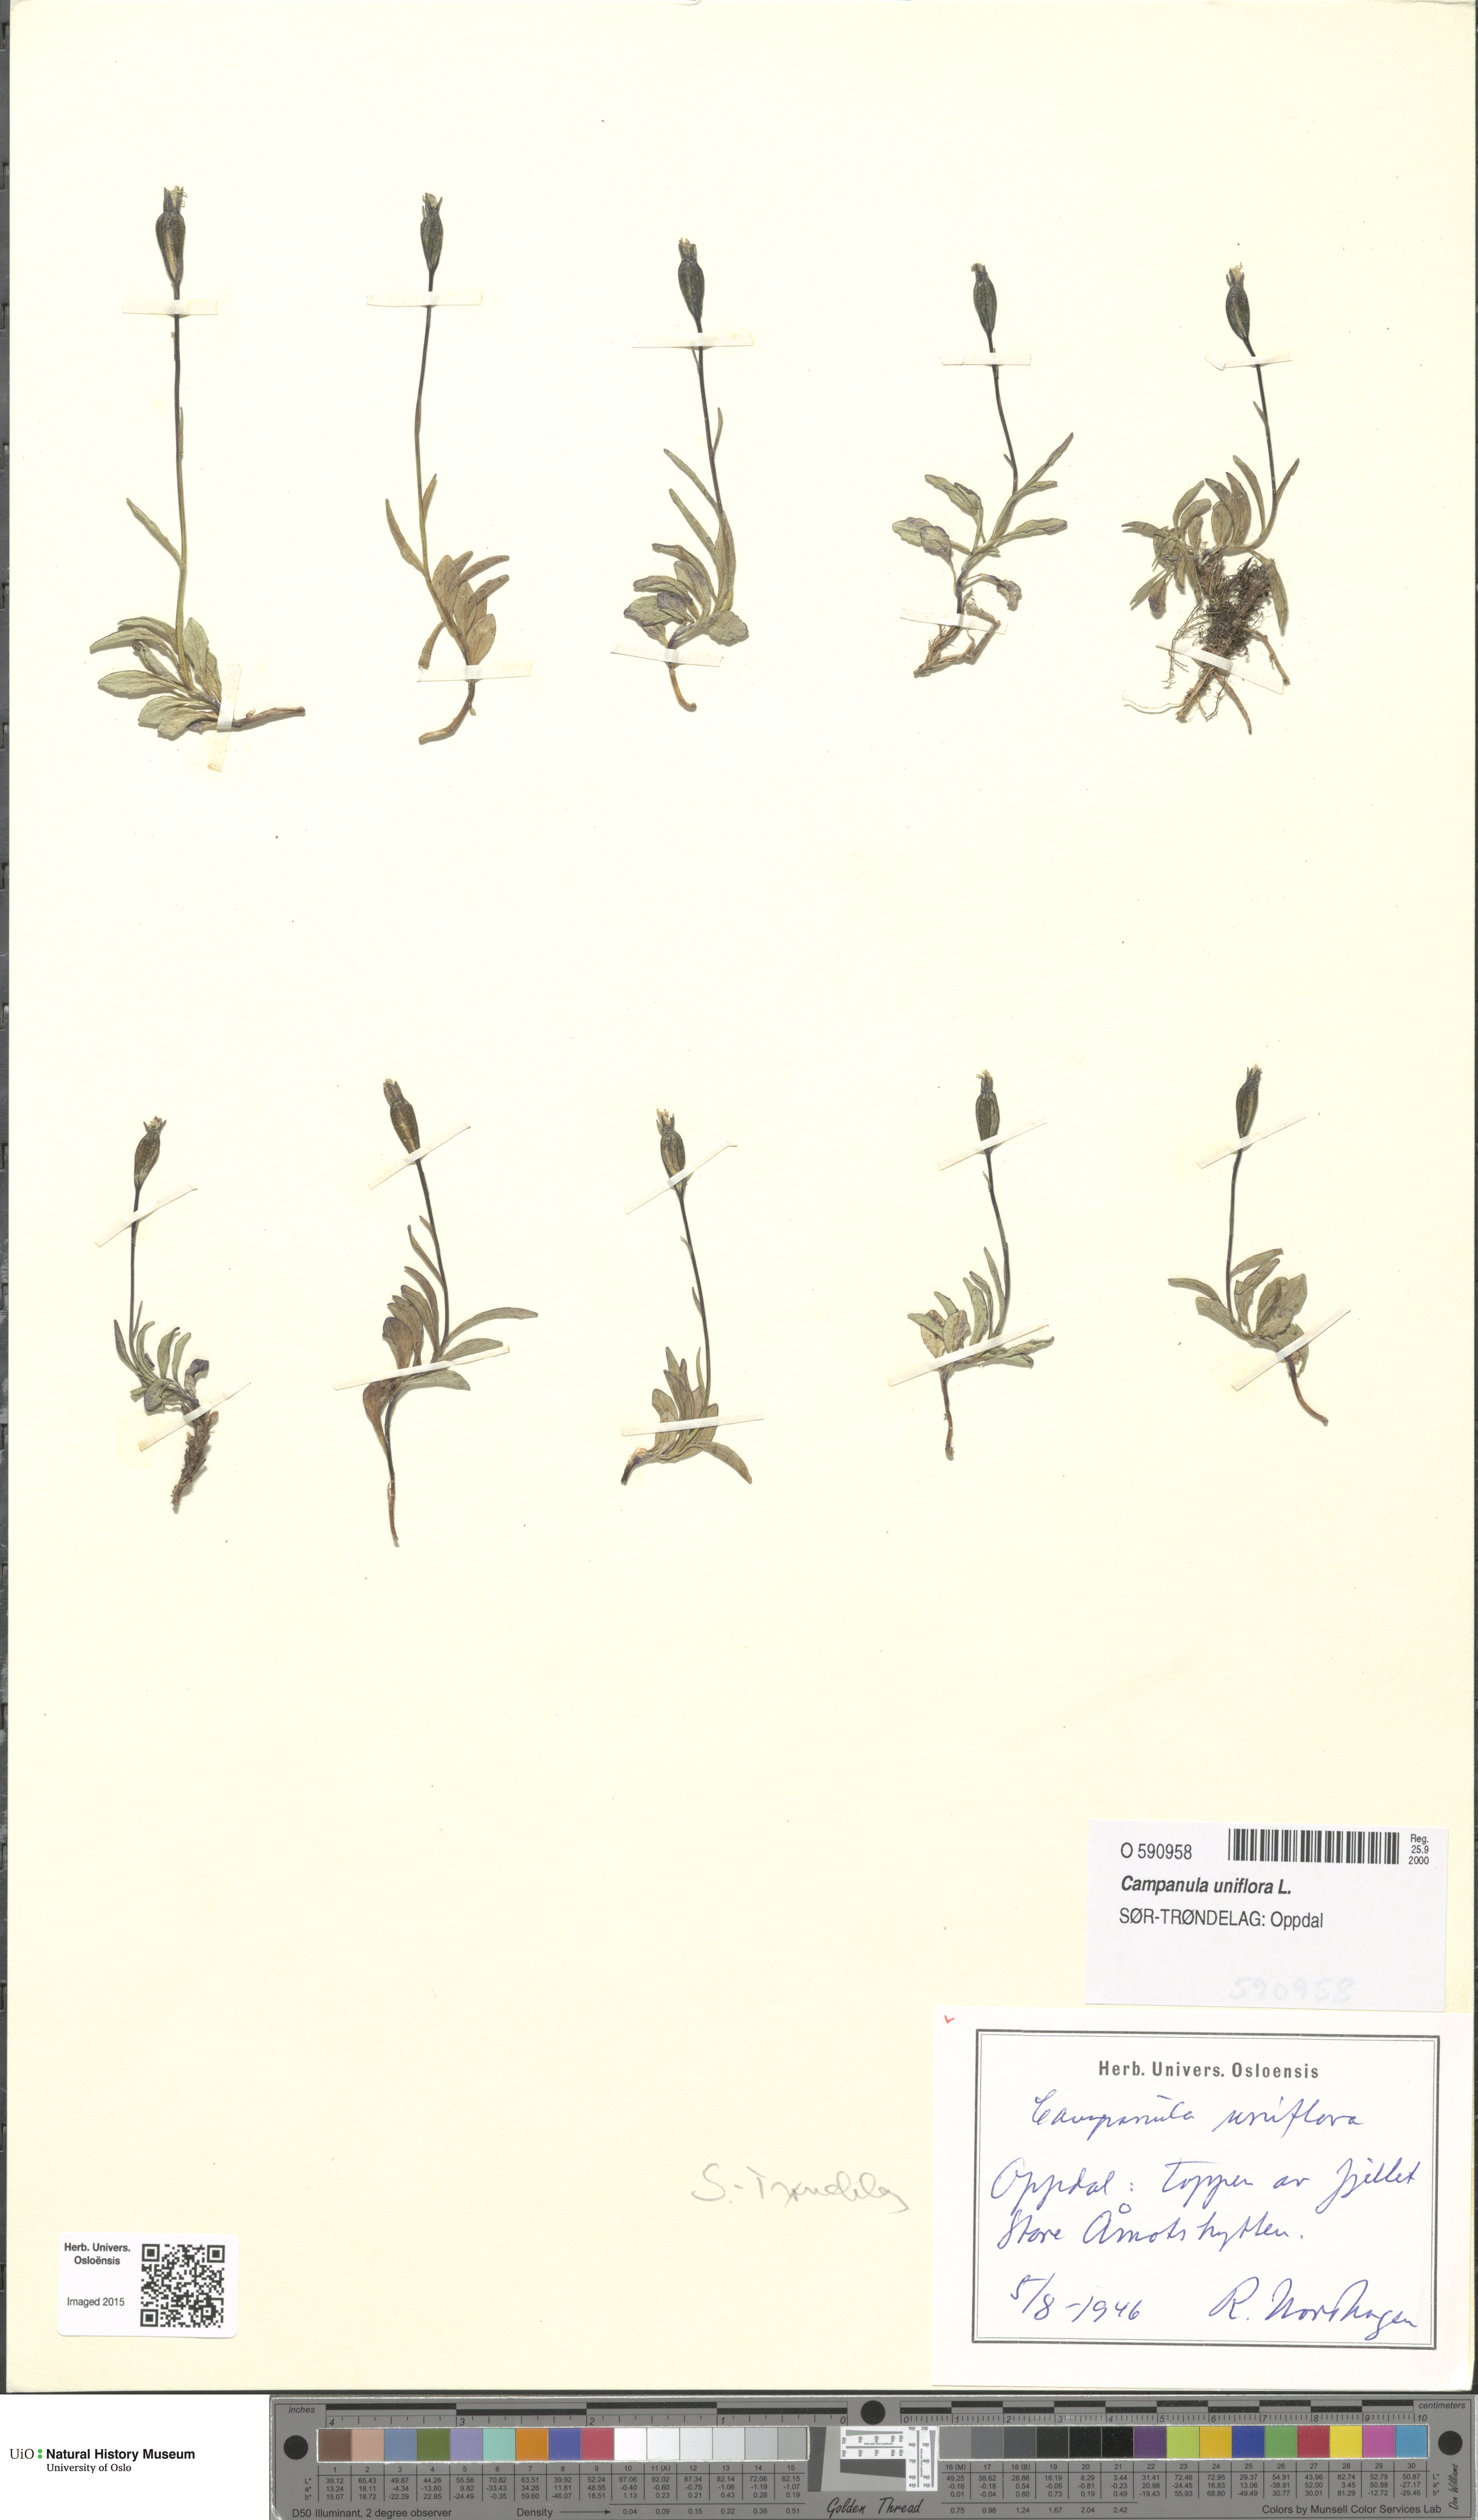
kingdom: Plantae
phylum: Tracheophyta
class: Magnoliopsida
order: Asterales
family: Campanulaceae
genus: Melanocalyx
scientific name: Melanocalyx uniflora
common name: Alpine harebell
